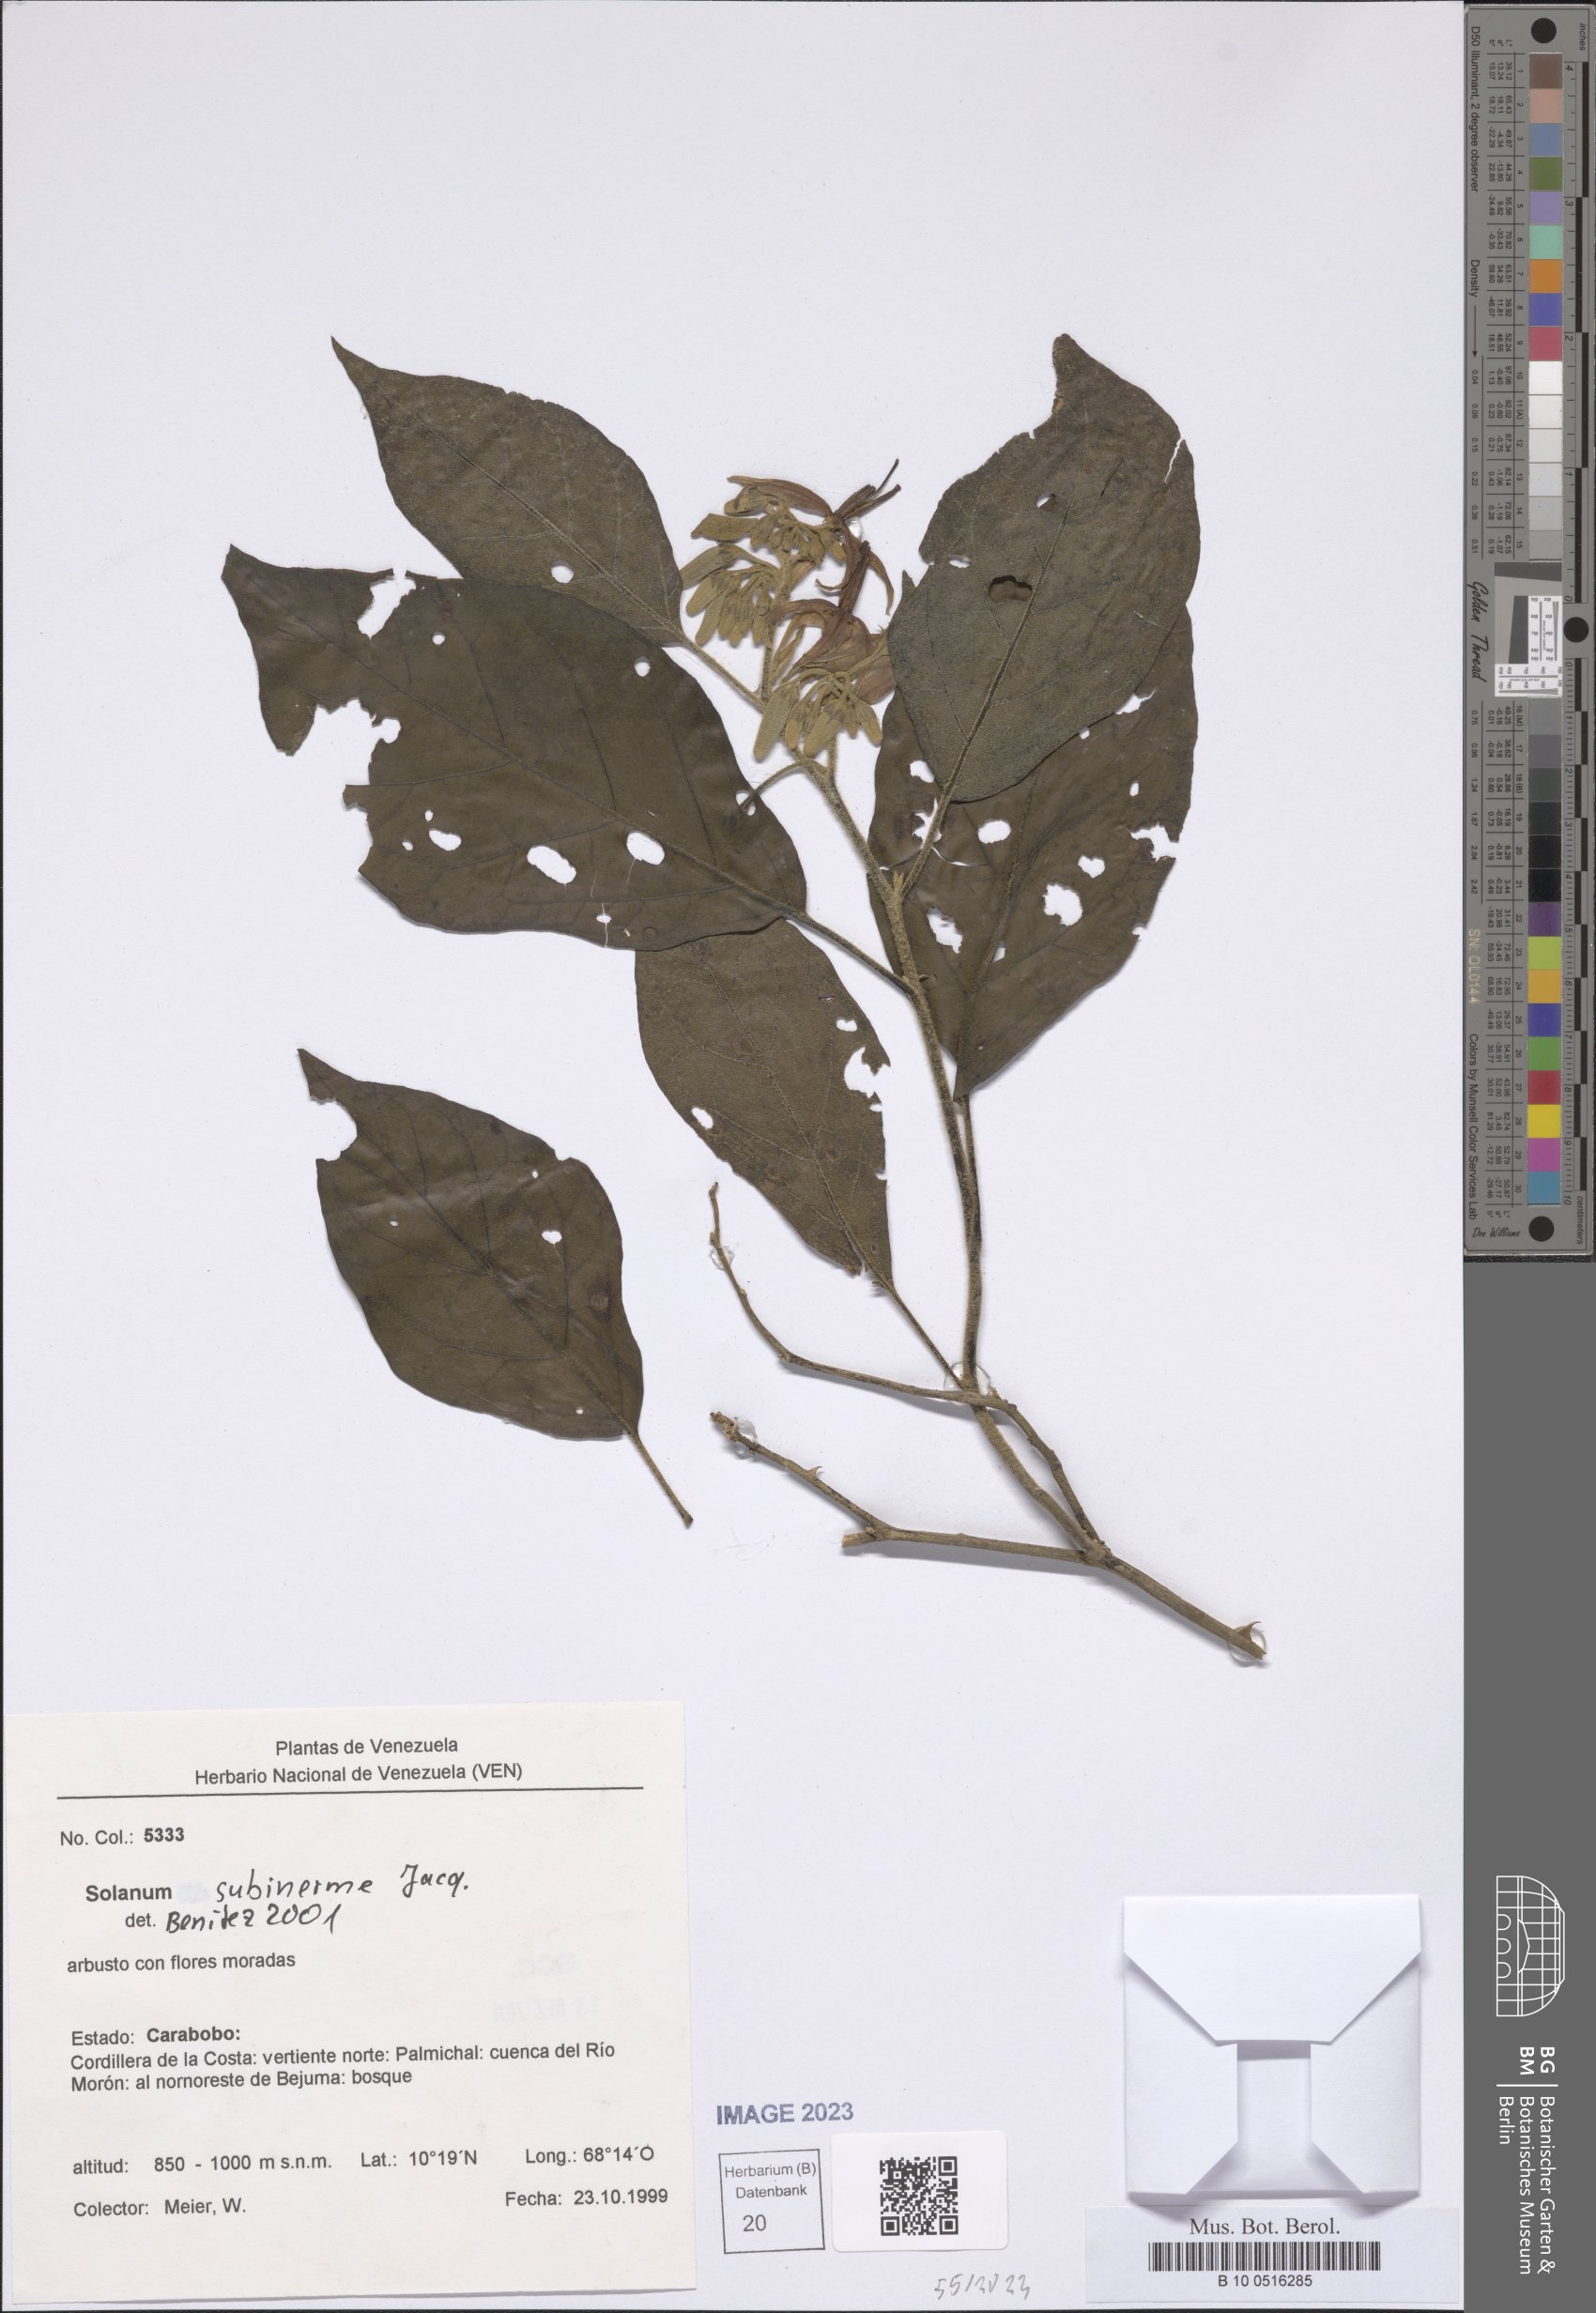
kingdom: Plantae
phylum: Tracheophyta
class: Magnoliopsida
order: Solanales
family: Solanaceae
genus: Solanum
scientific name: Solanum subinerme
